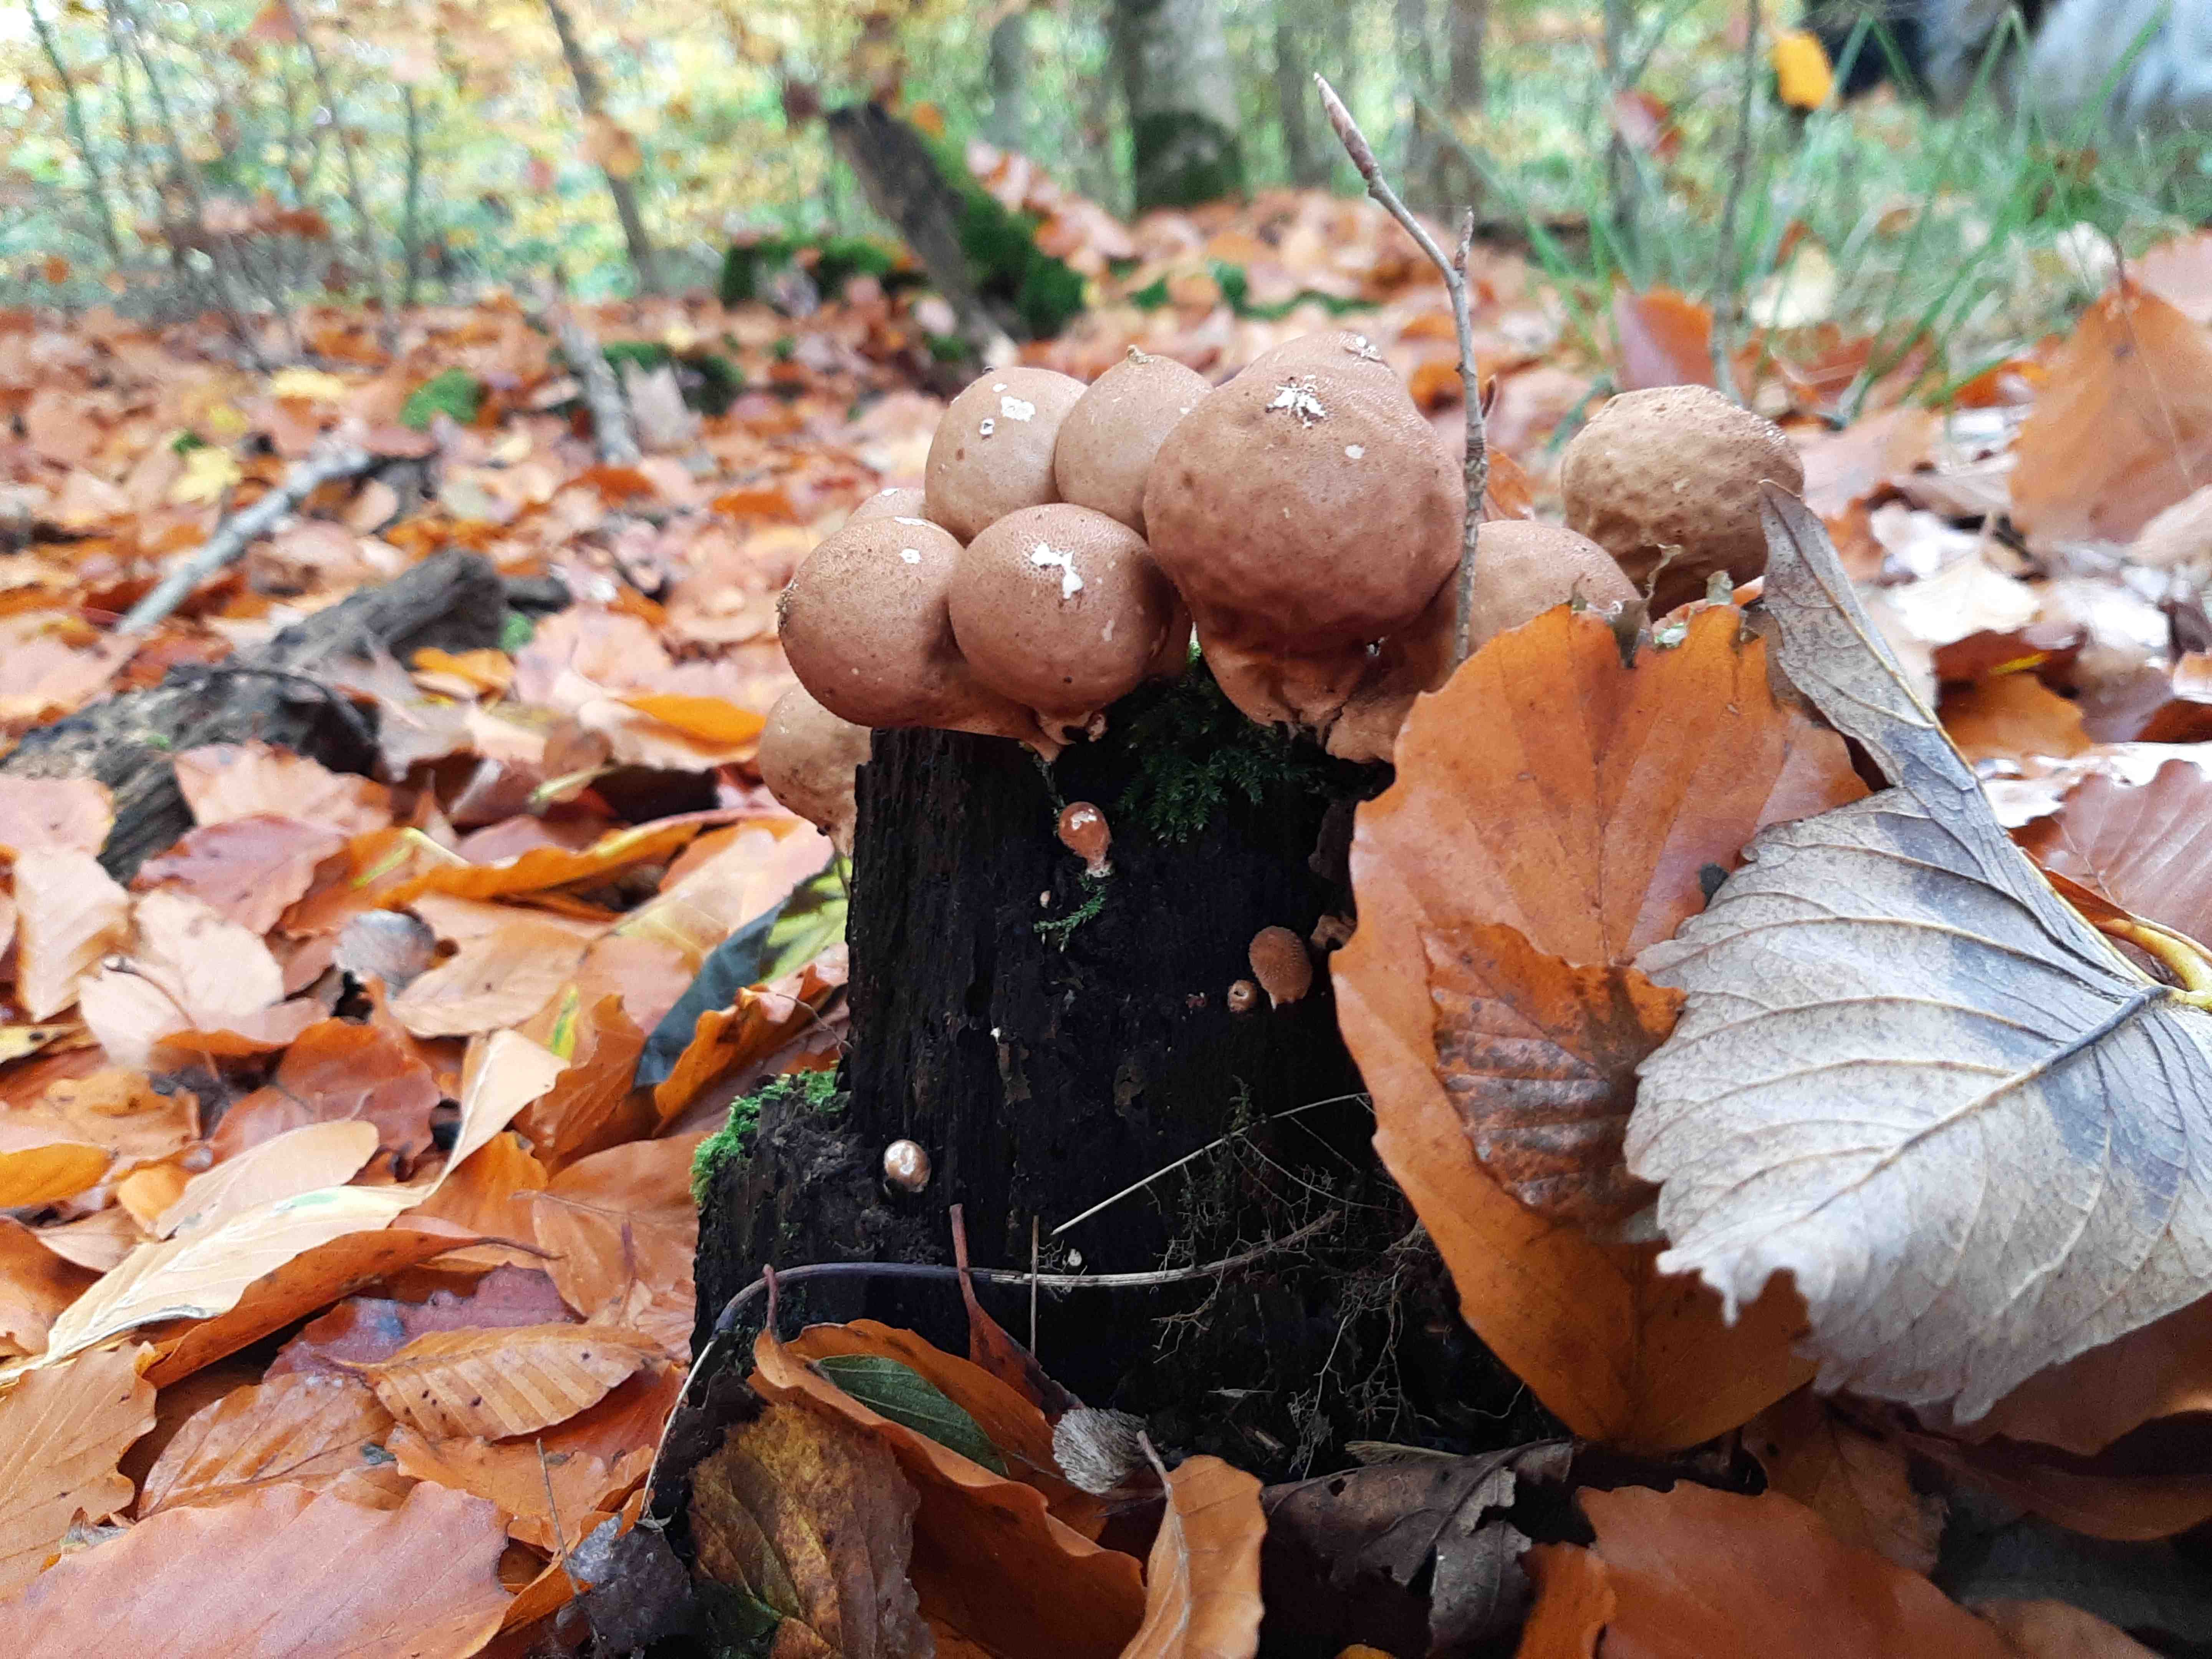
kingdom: Fungi
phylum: Basidiomycota
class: Agaricomycetes
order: Agaricales
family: Lycoperdaceae
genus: Apioperdon
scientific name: Apioperdon pyriforme
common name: pære-støvbold
